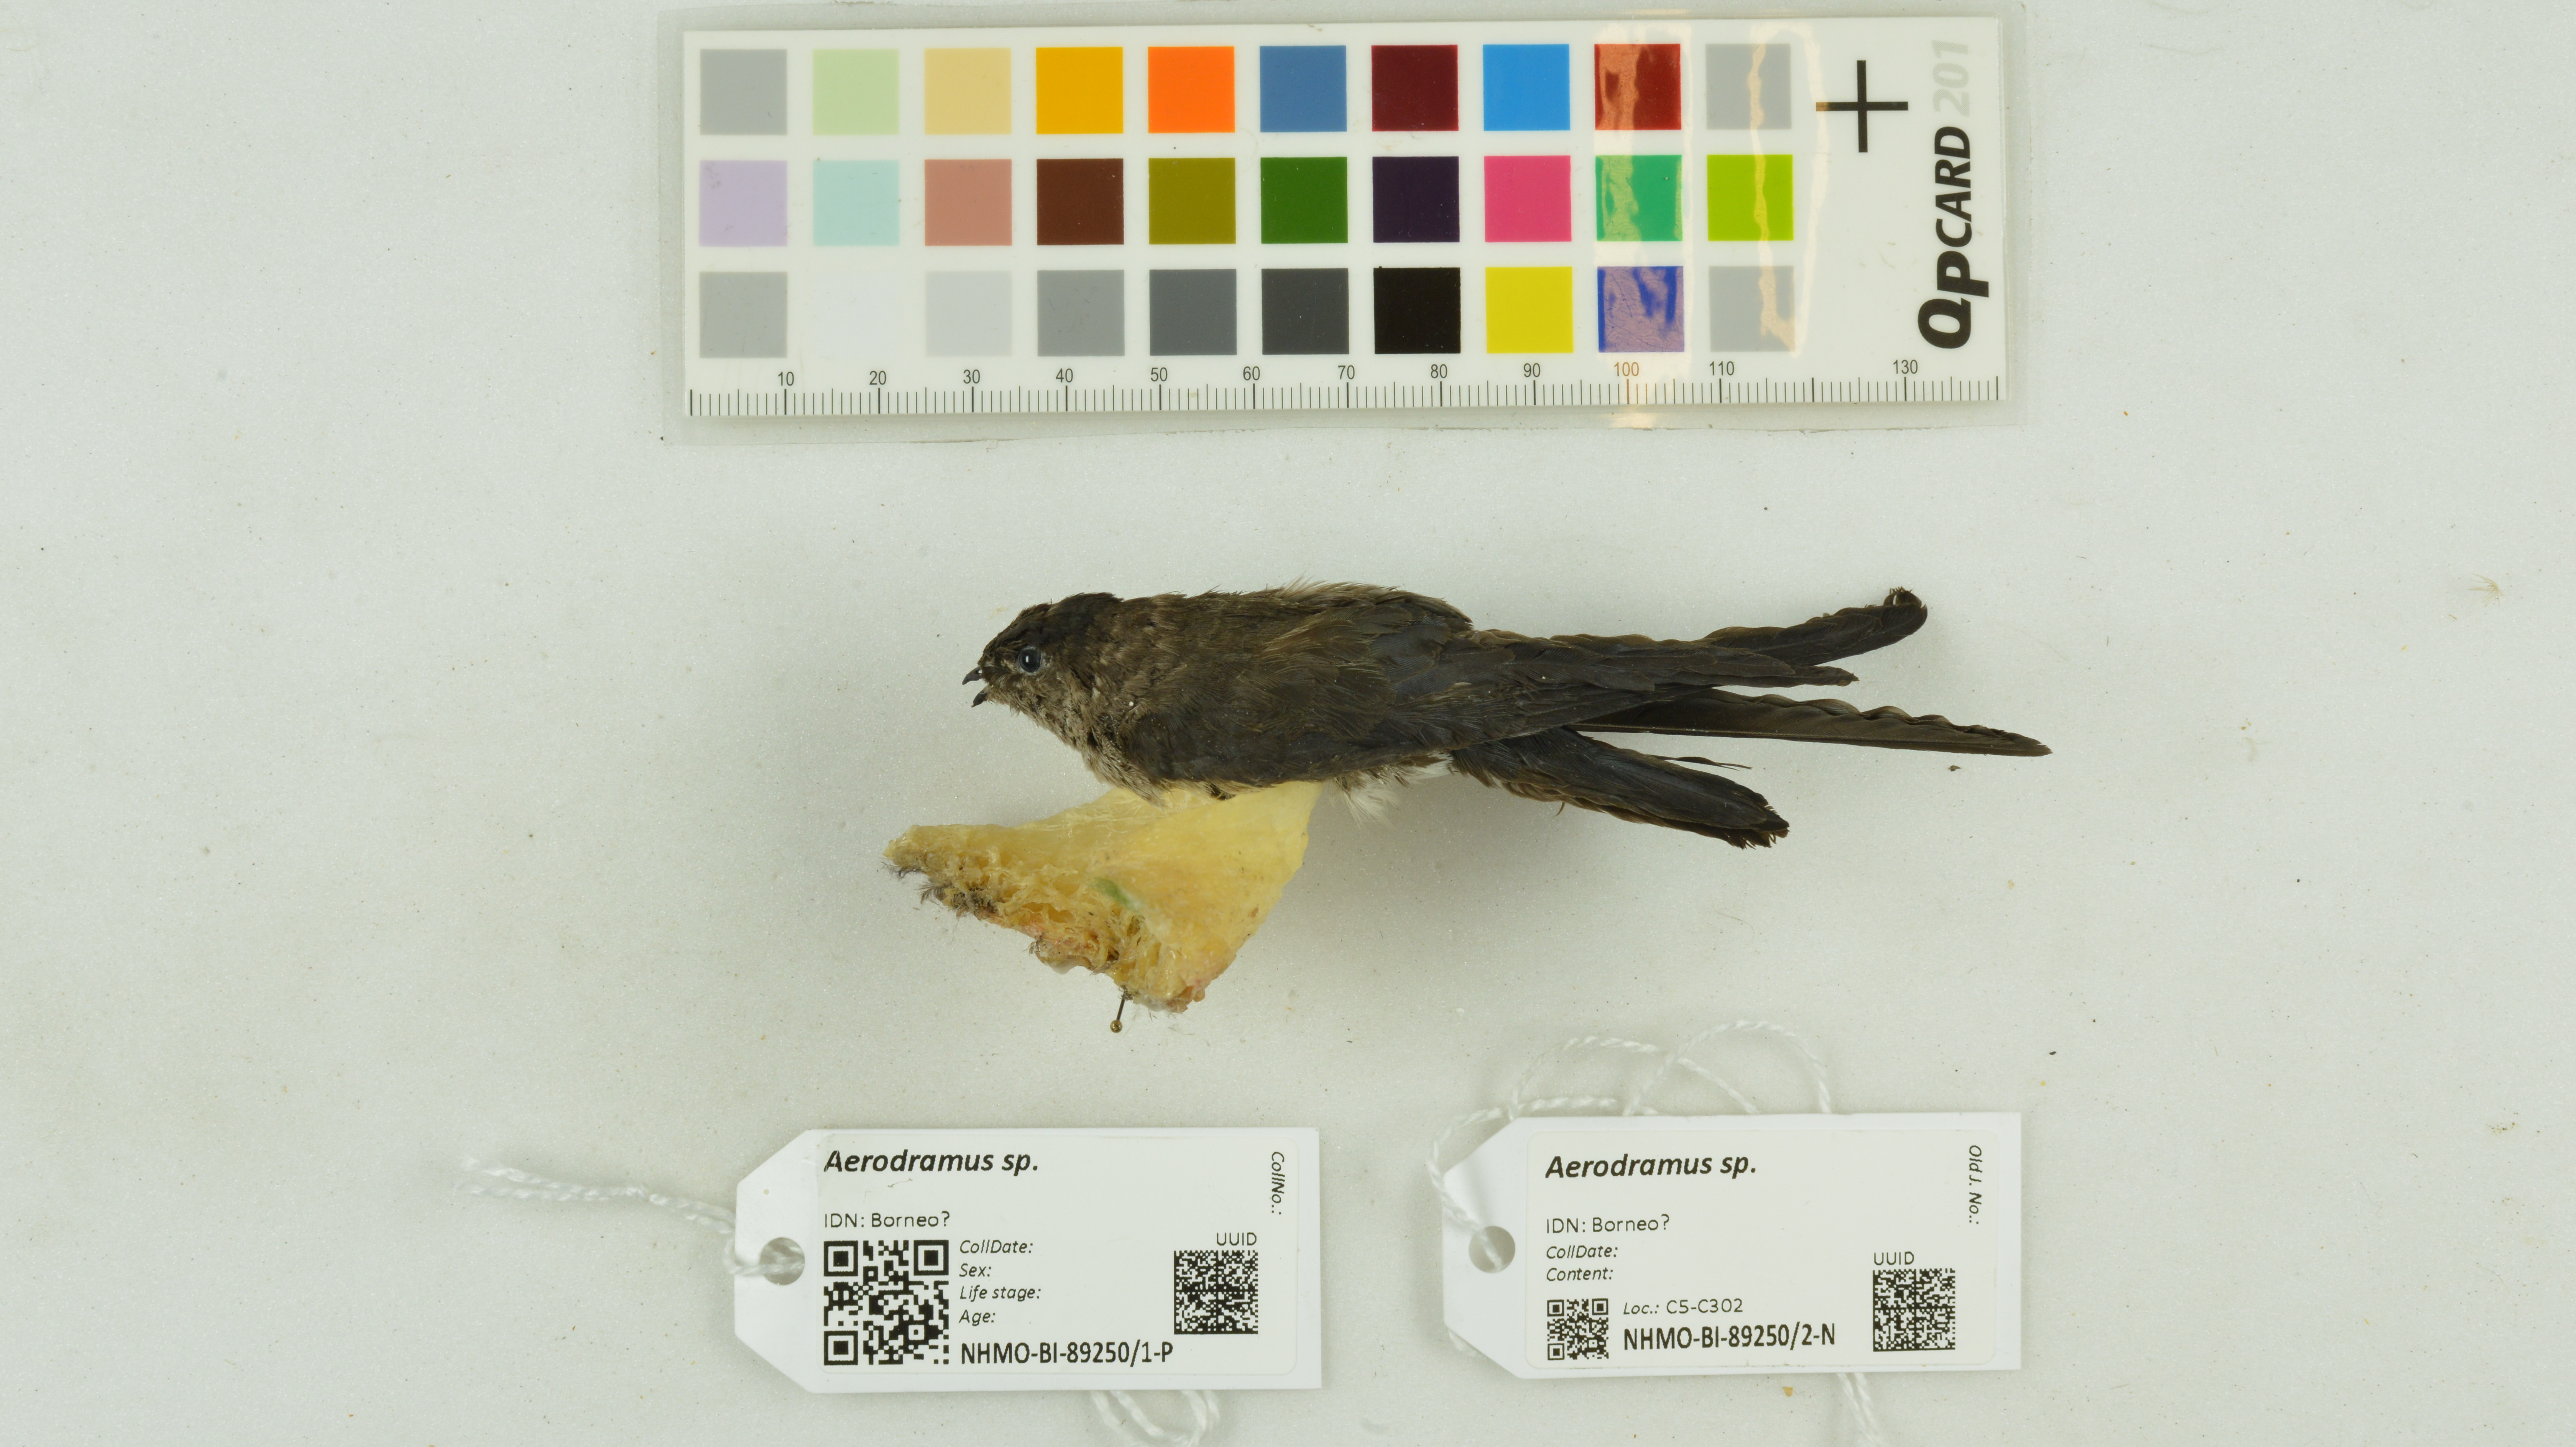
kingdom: Animalia
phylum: Chordata
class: Aves
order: Apodiformes
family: Apodidae
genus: Aerodramus
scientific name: Aerodramus
